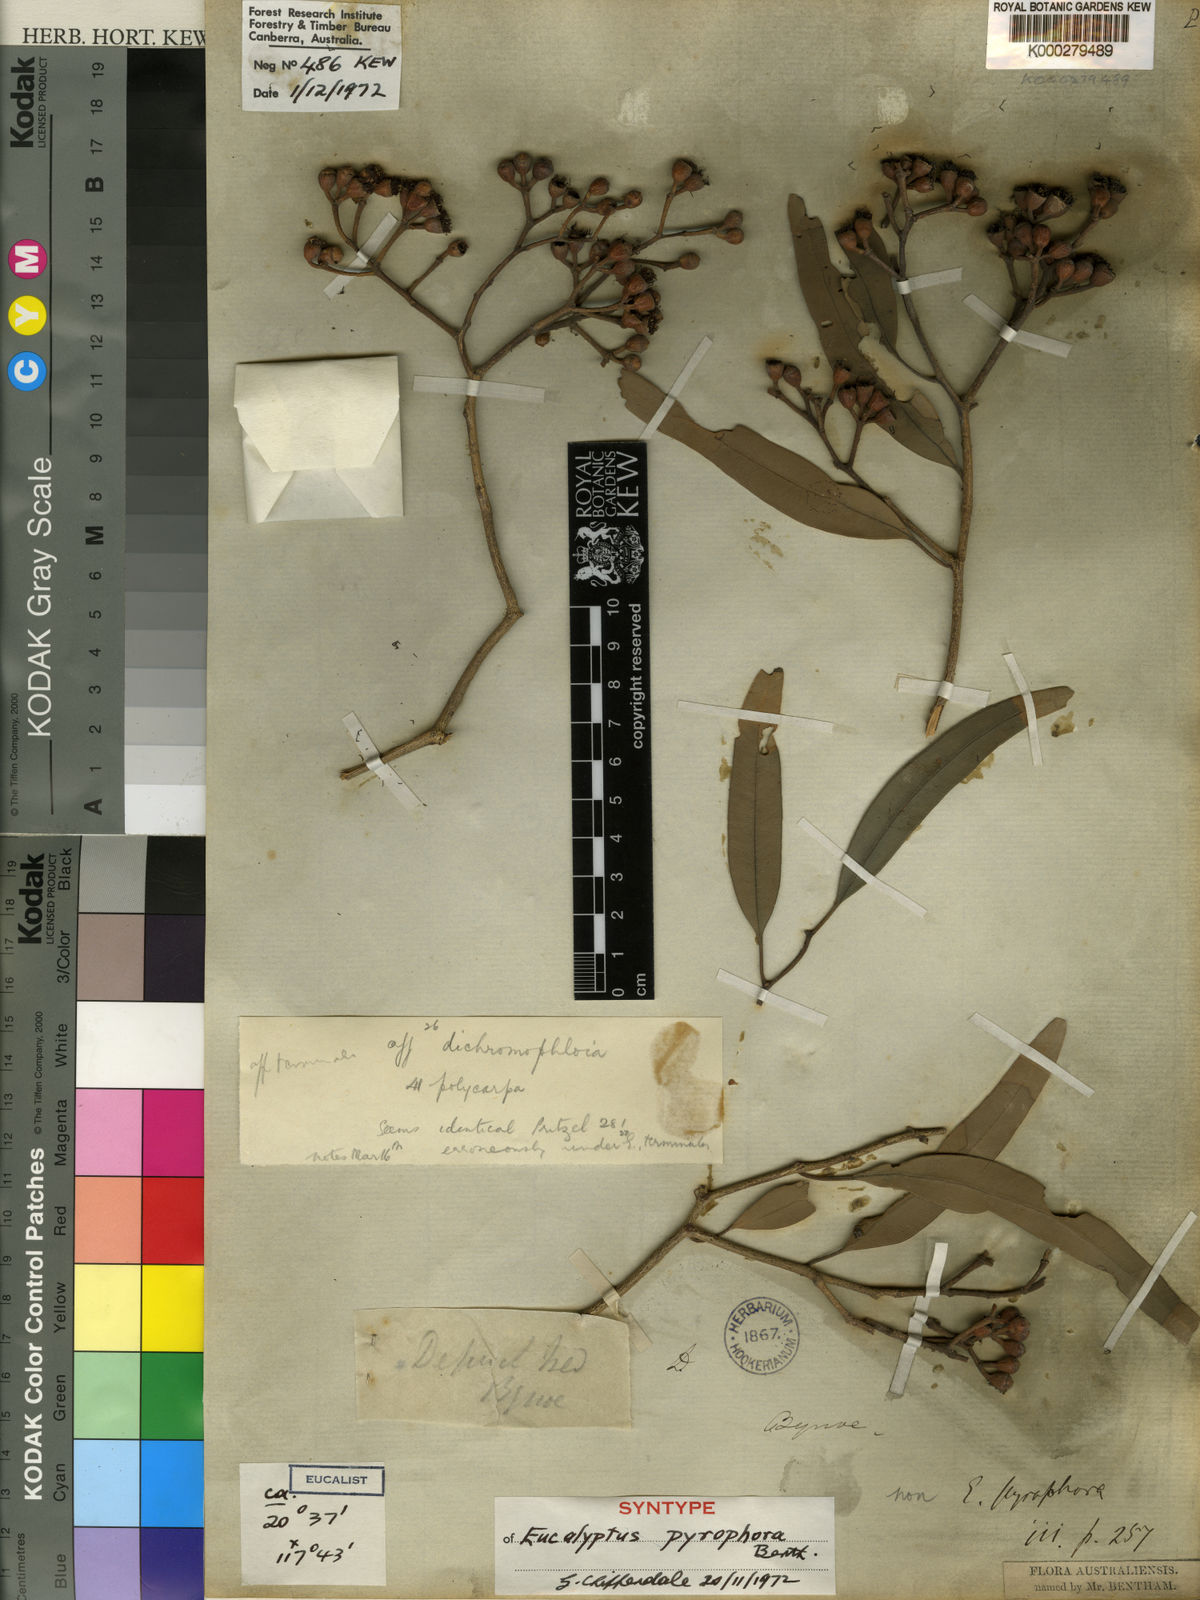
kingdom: Plantae
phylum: Tracheophyta
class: Magnoliopsida
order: Myrtales
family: Myrtaceae
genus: Corymbia
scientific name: Corymbia terminalis
